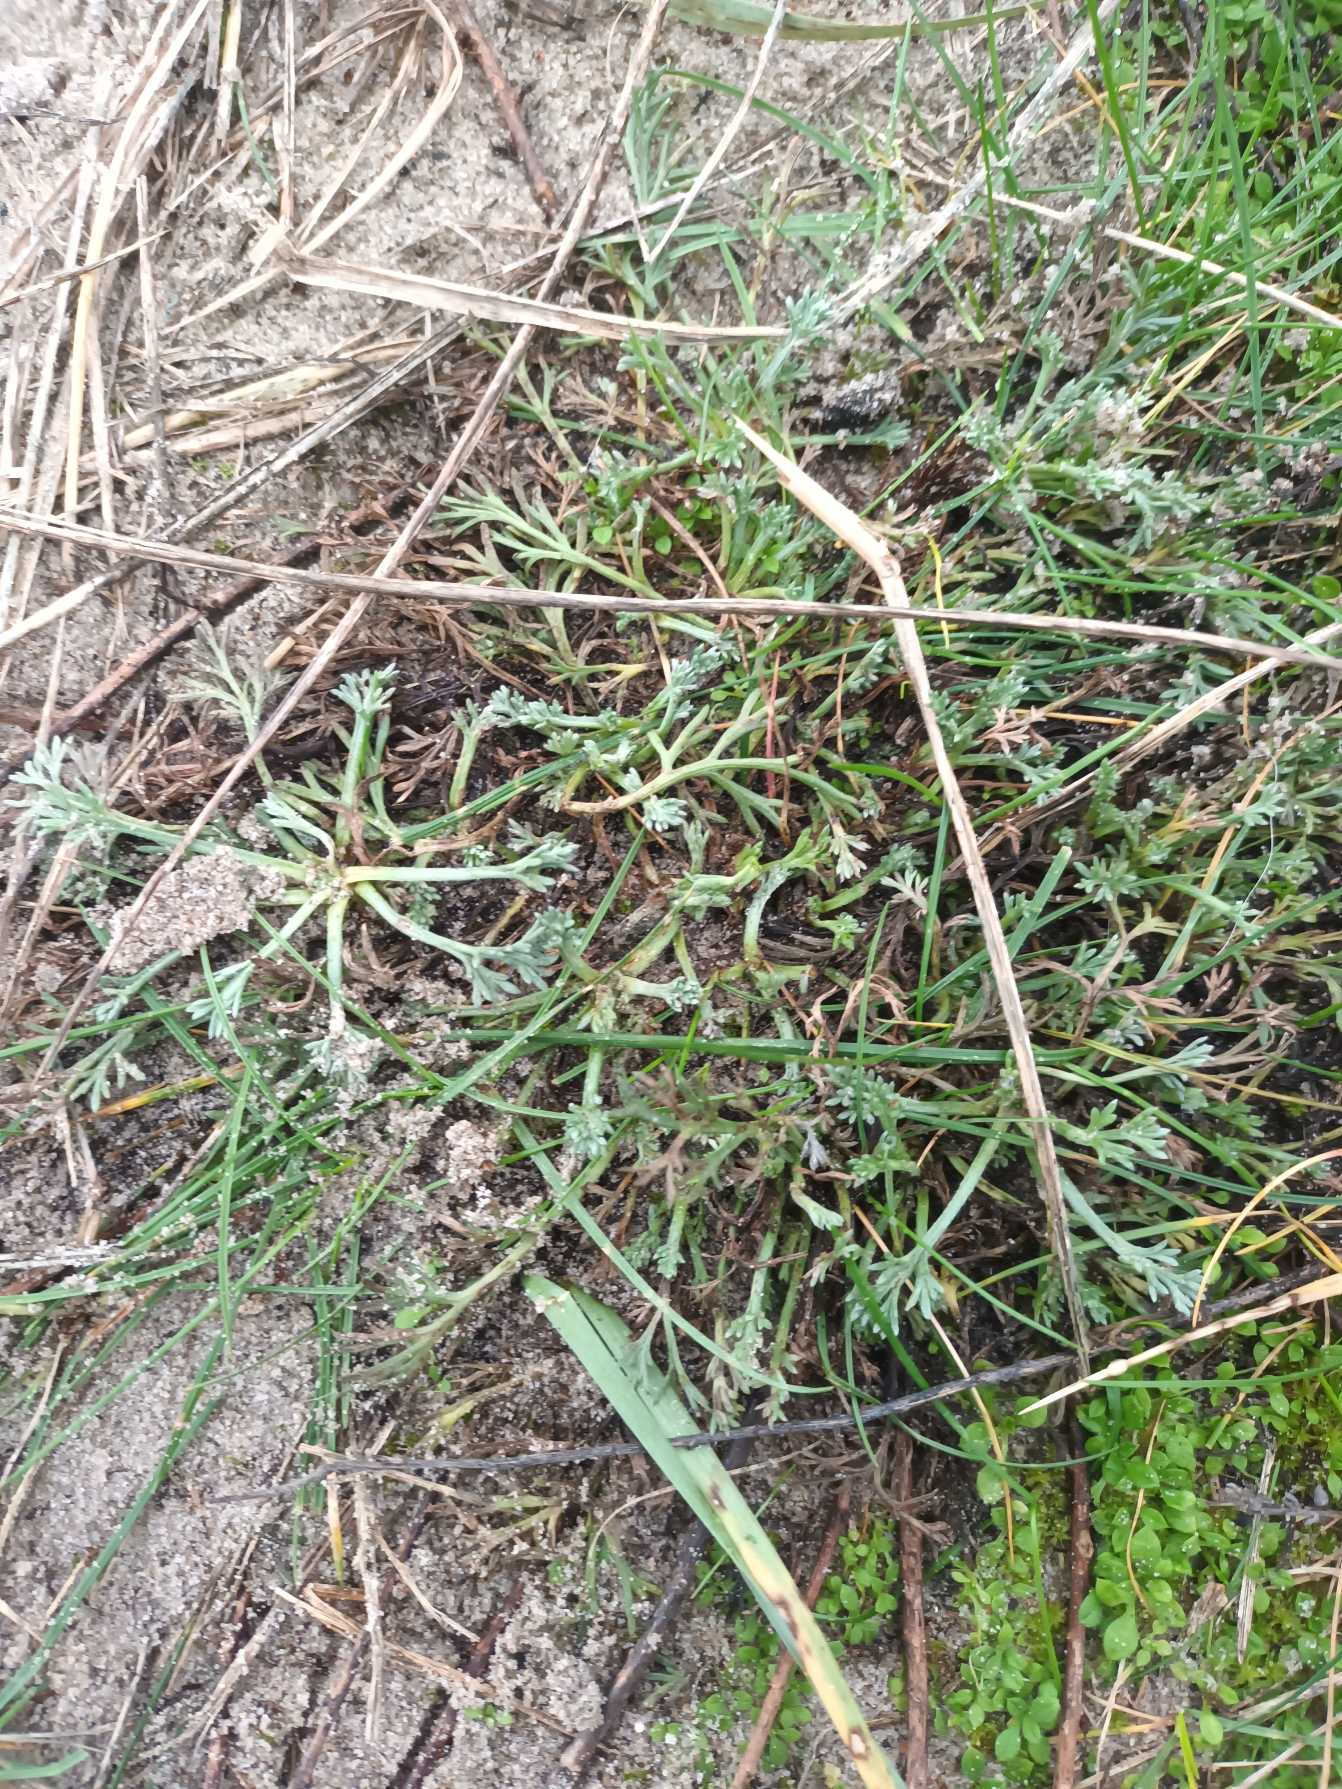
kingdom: Plantae
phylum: Tracheophyta
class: Magnoliopsida
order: Asterales
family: Asteraceae
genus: Artemisia
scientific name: Artemisia campestris
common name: Mark-bynke
